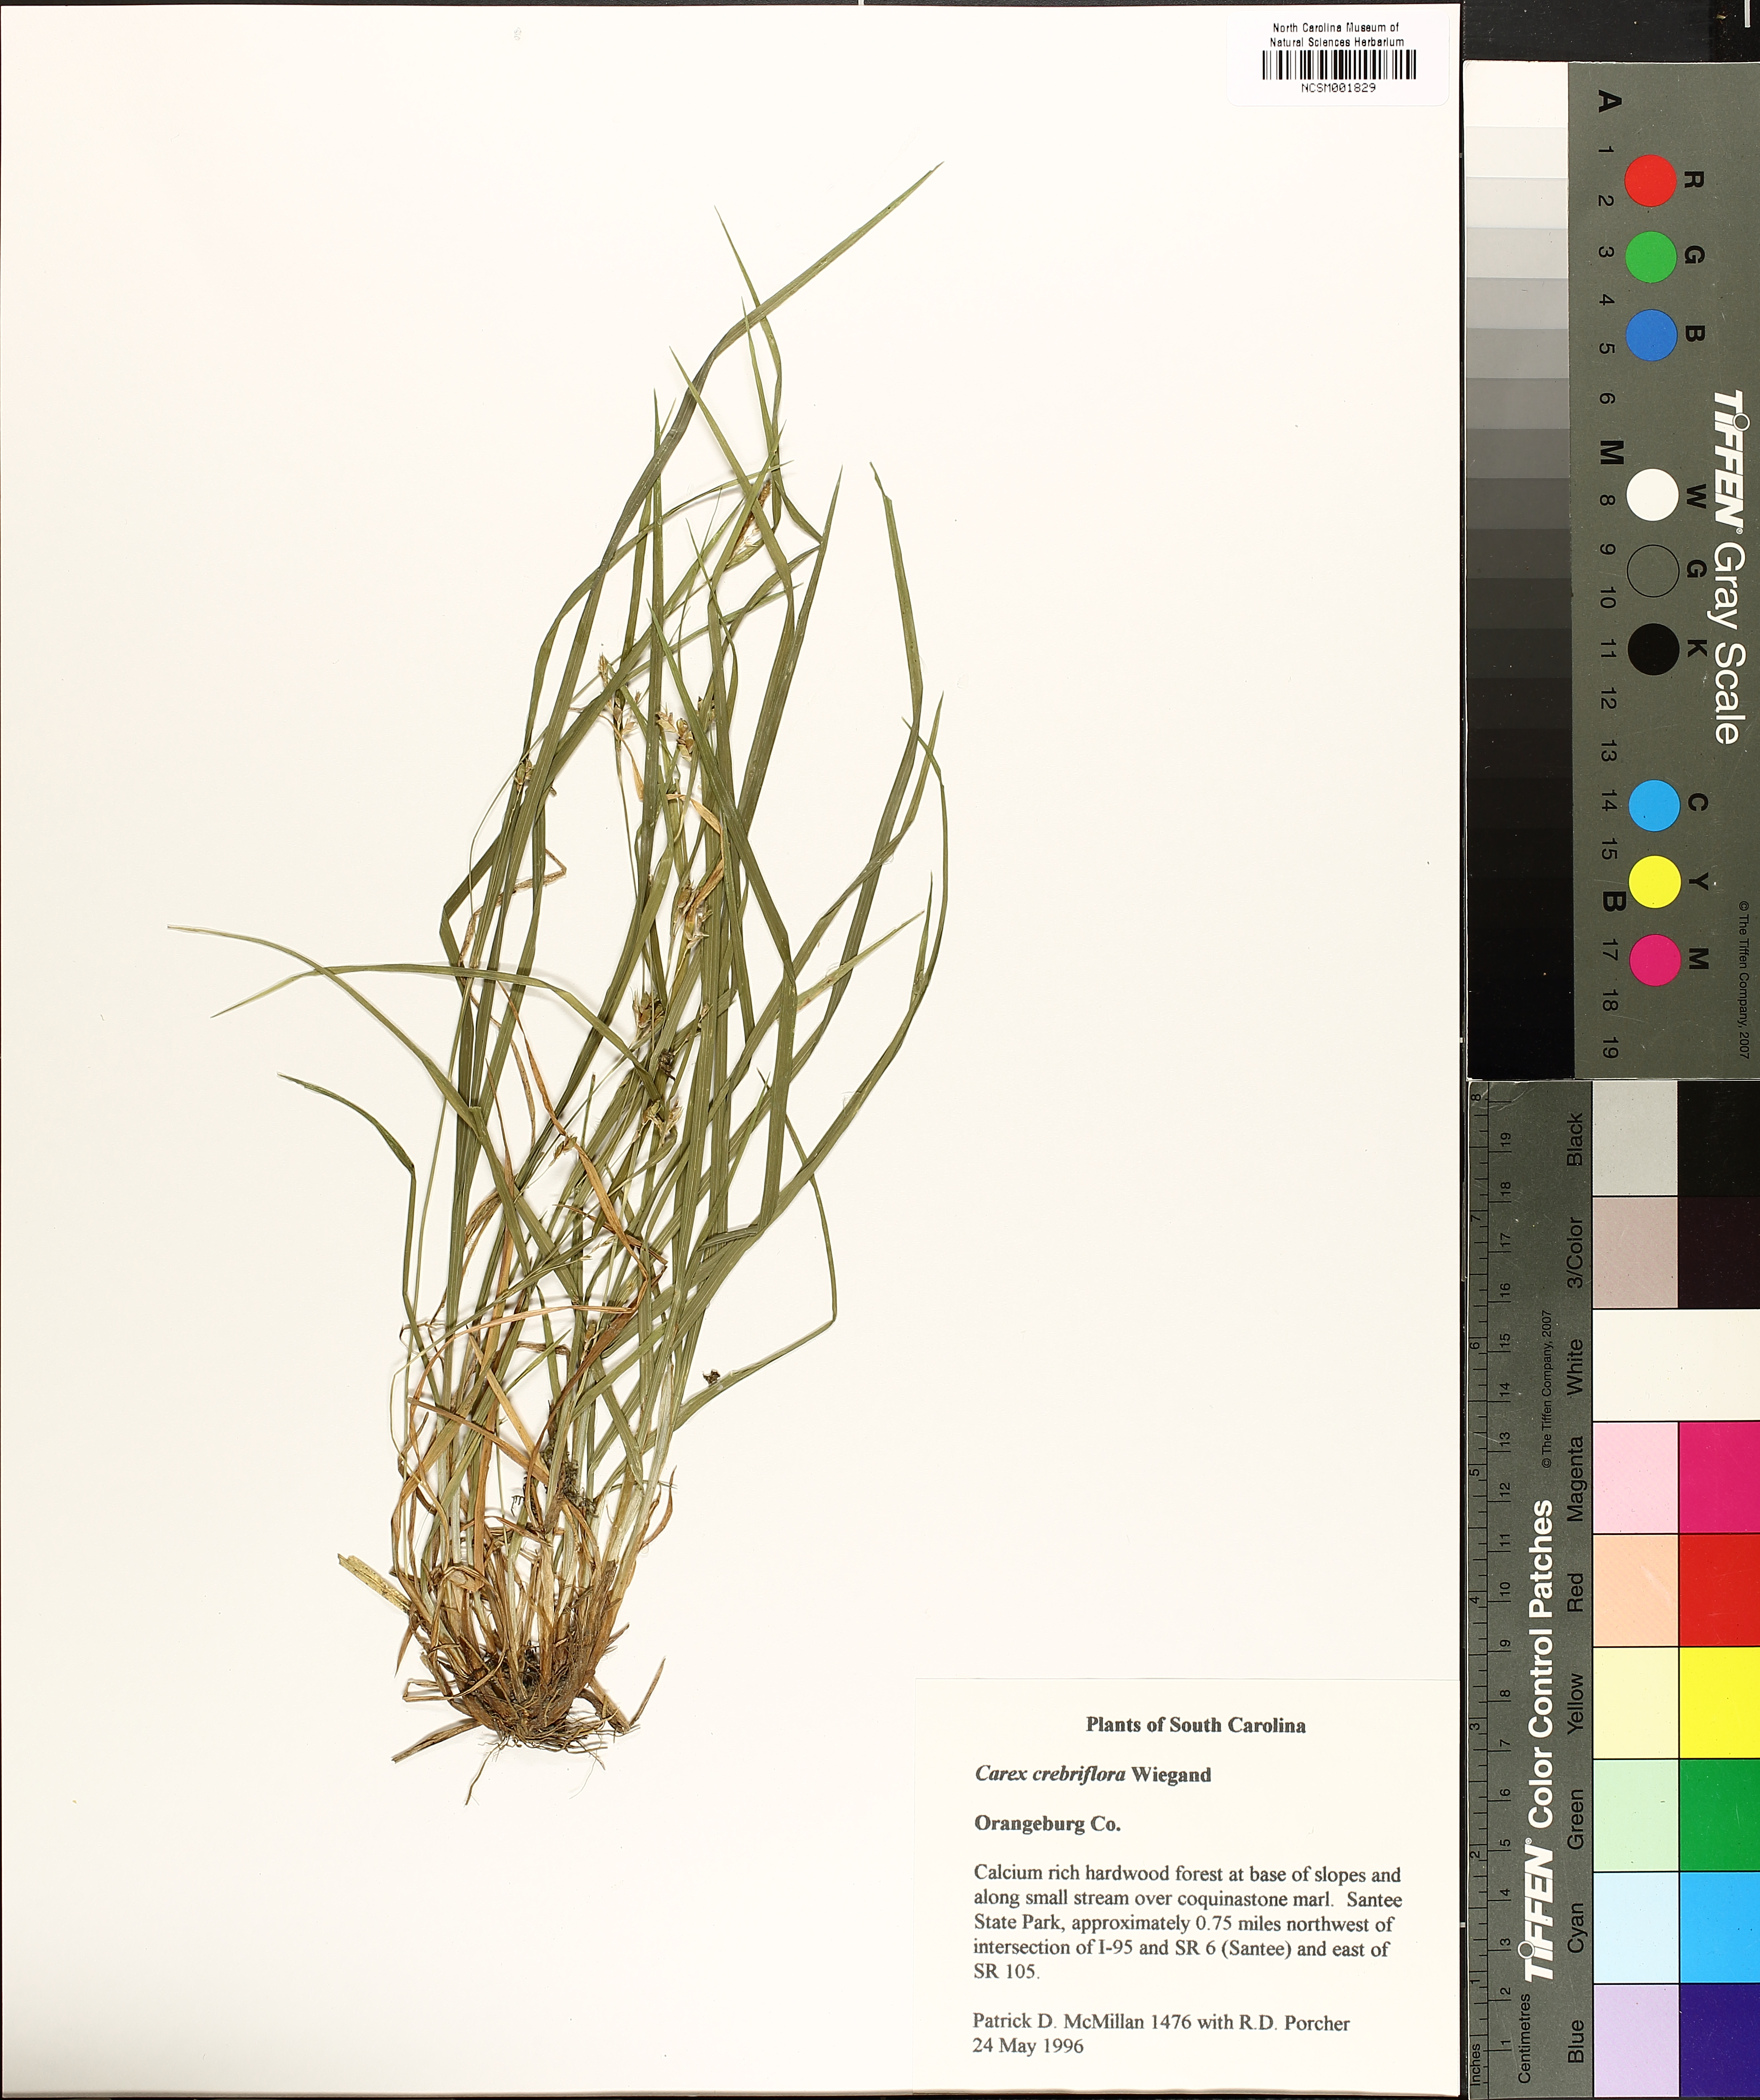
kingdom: Plantae
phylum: Tracheophyta
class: Liliopsida
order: Poales
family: Cyperaceae
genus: Carex
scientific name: Carex crebriflora
